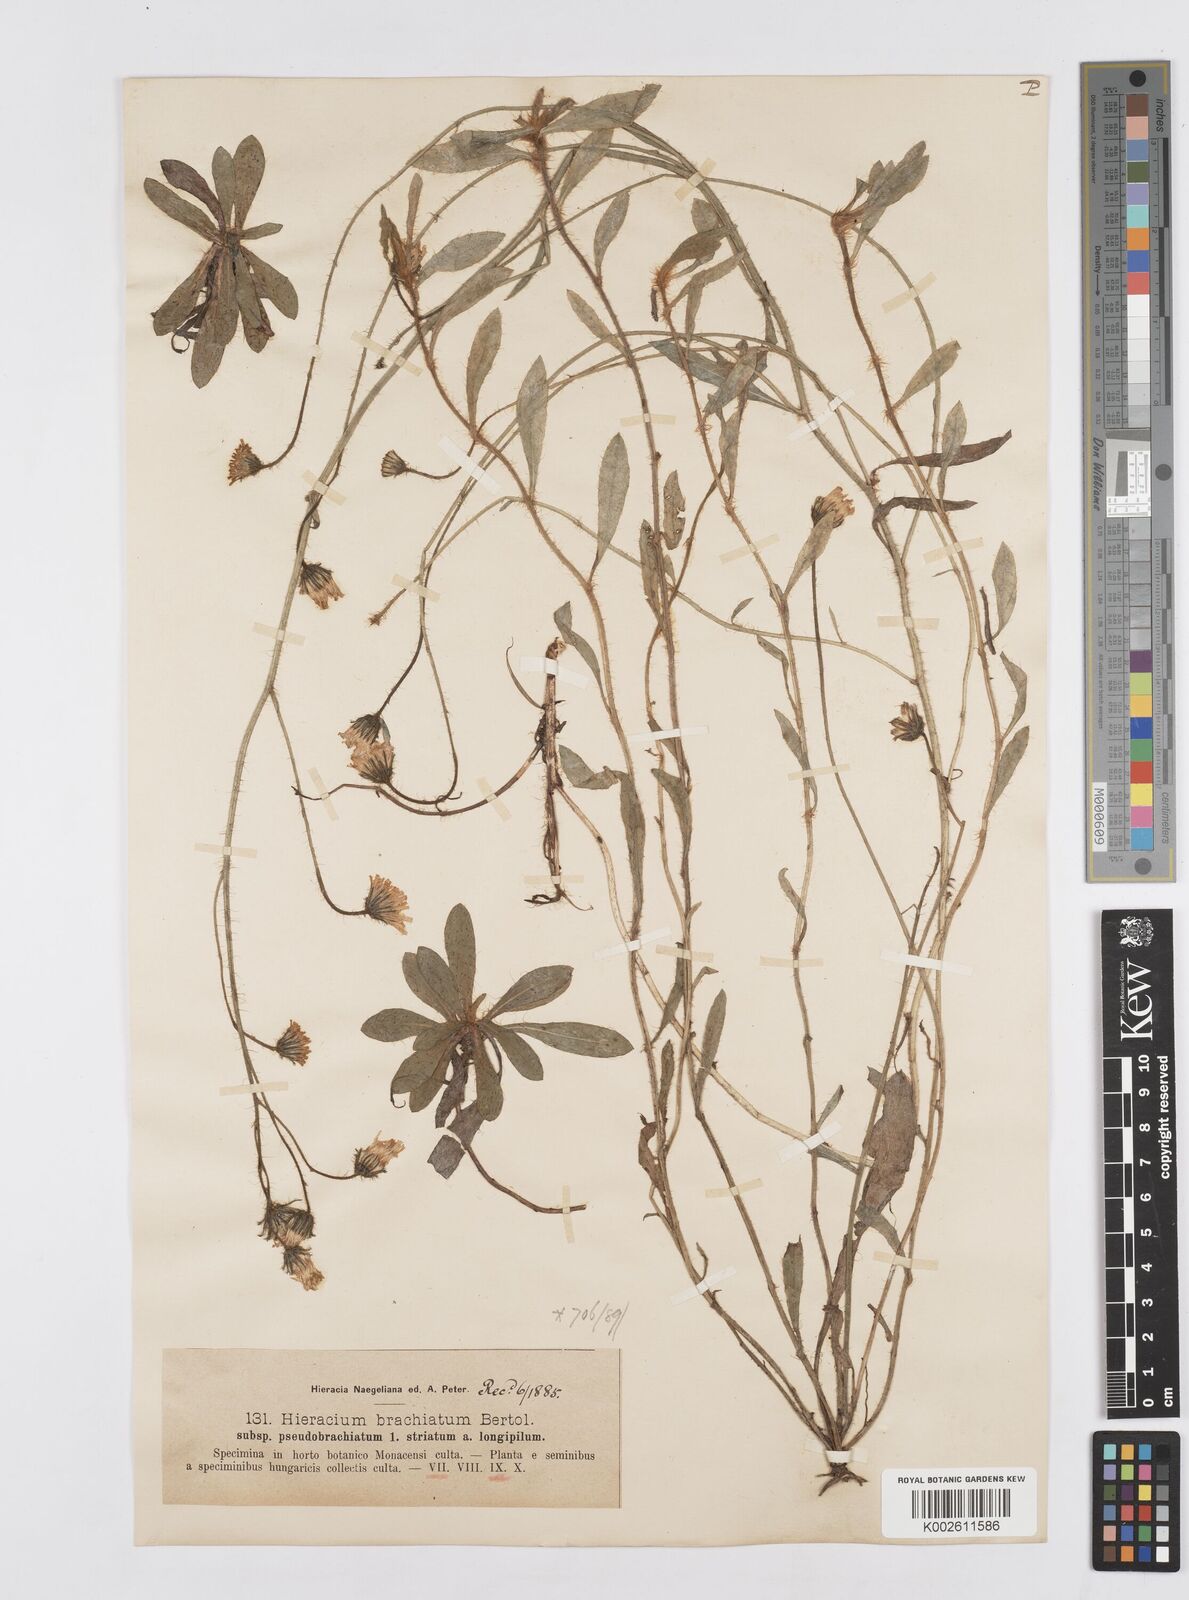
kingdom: Plantae
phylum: Tracheophyta
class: Magnoliopsida
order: Asterales
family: Asteraceae
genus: Pilosella
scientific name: Pilosella acutifolia
